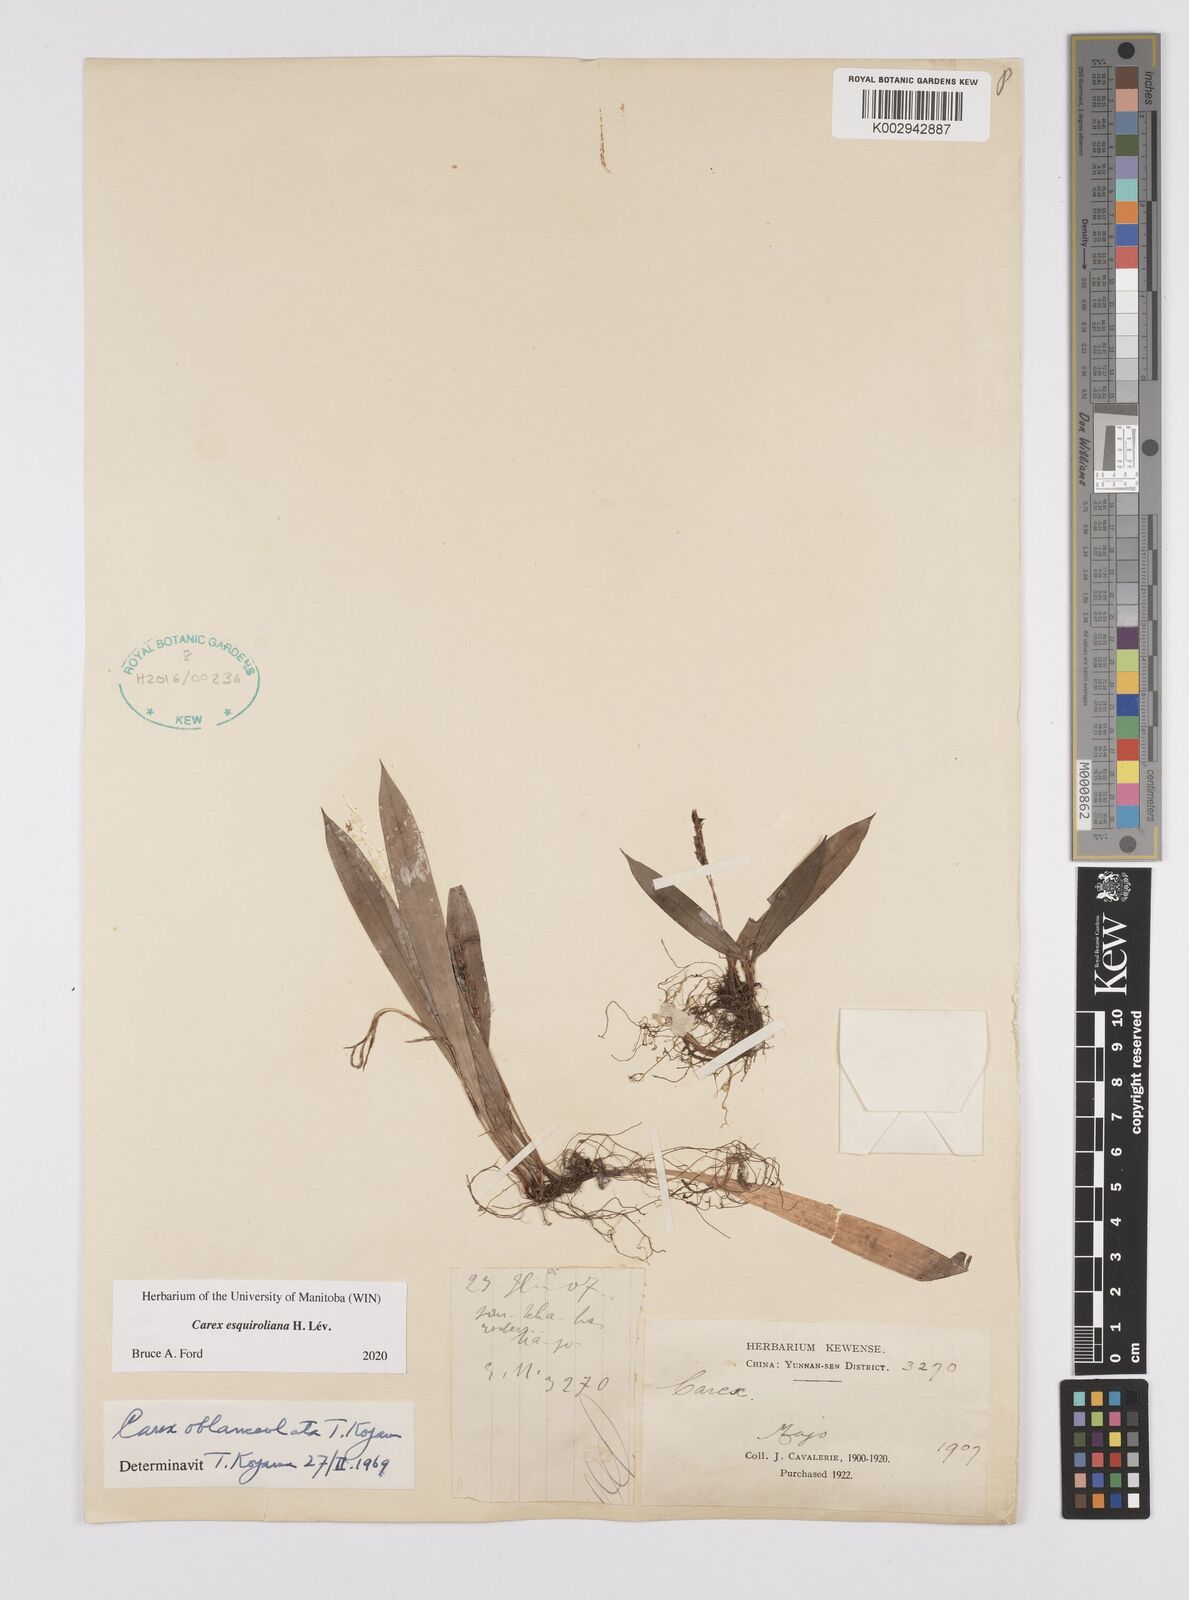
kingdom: Plantae
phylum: Tracheophyta
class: Liliopsida
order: Poales
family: Cyperaceae
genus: Carex
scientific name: Carex esquiroliana
